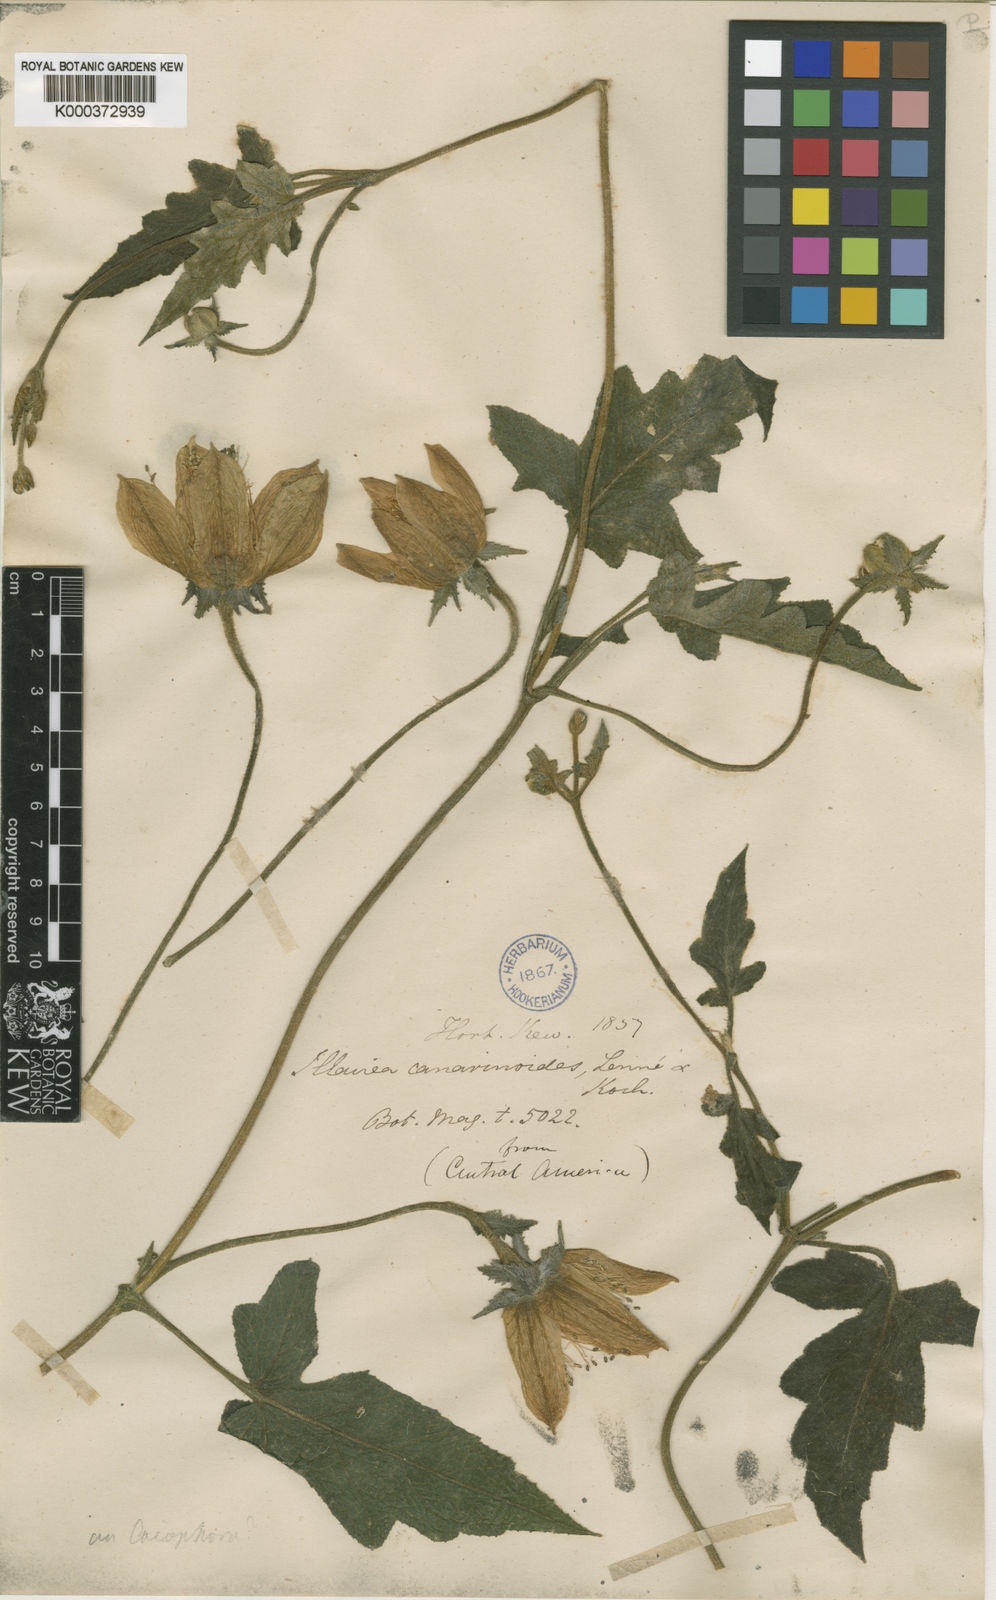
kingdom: Plantae
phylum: Tracheophyta
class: Magnoliopsida
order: Cornales
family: Loasaceae
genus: Caiophora
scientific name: Caiophora canarinoides
